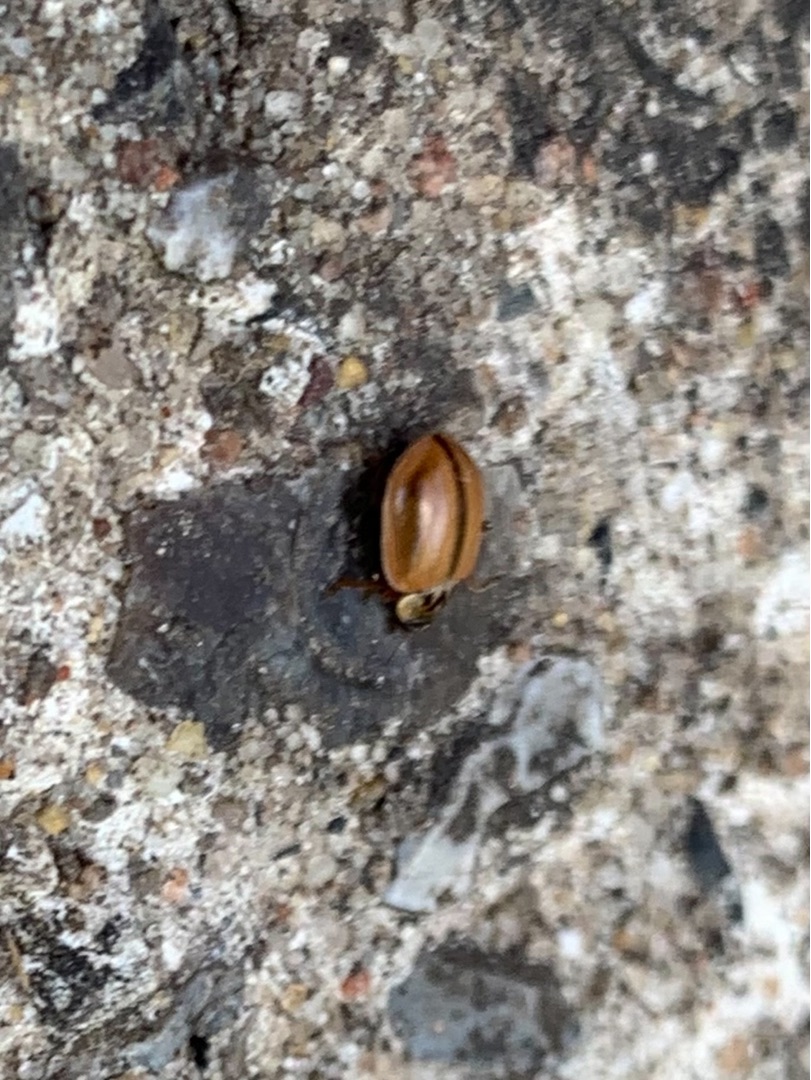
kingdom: Animalia
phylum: Arthropoda
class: Insecta
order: Coleoptera
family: Coccinellidae
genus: Aphidecta
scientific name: Aphidecta obliterata
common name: Uplettet mariehøne
